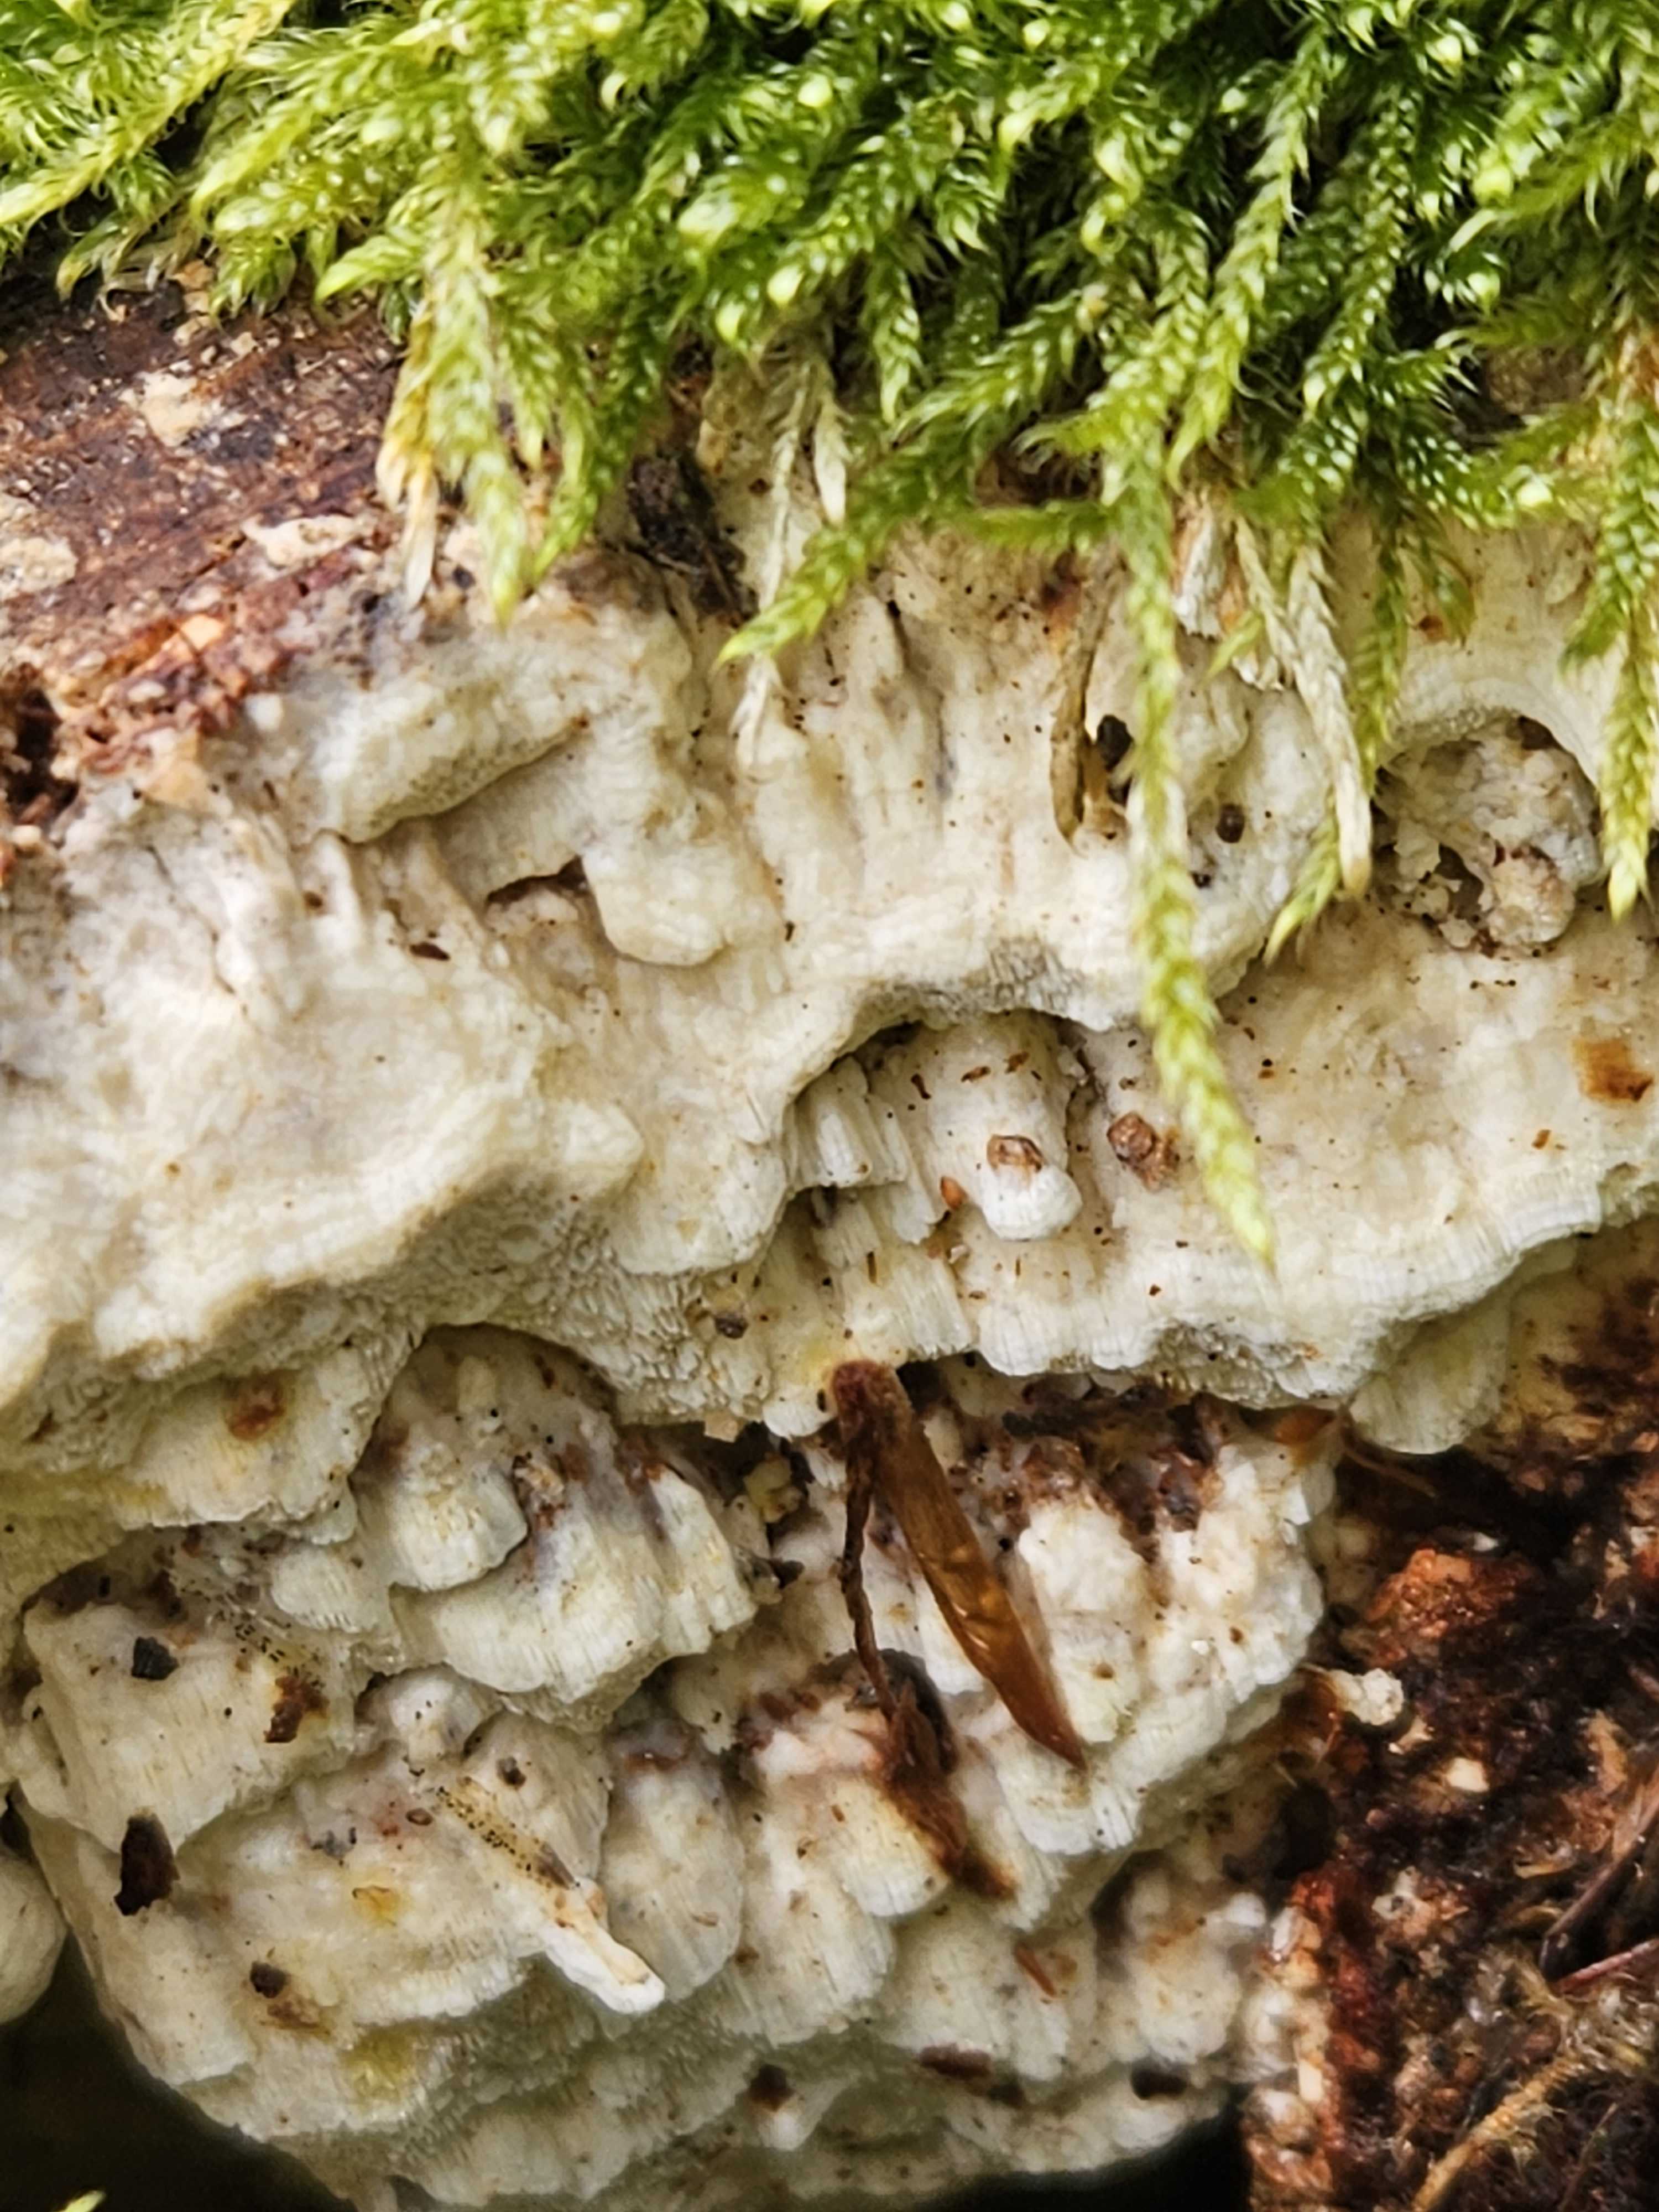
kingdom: Fungi
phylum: Basidiomycota
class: Agaricomycetes
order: Polyporales
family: Fomitopsidaceae
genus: Daedalea
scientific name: Daedalea xantha
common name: gul sejporesvamp
